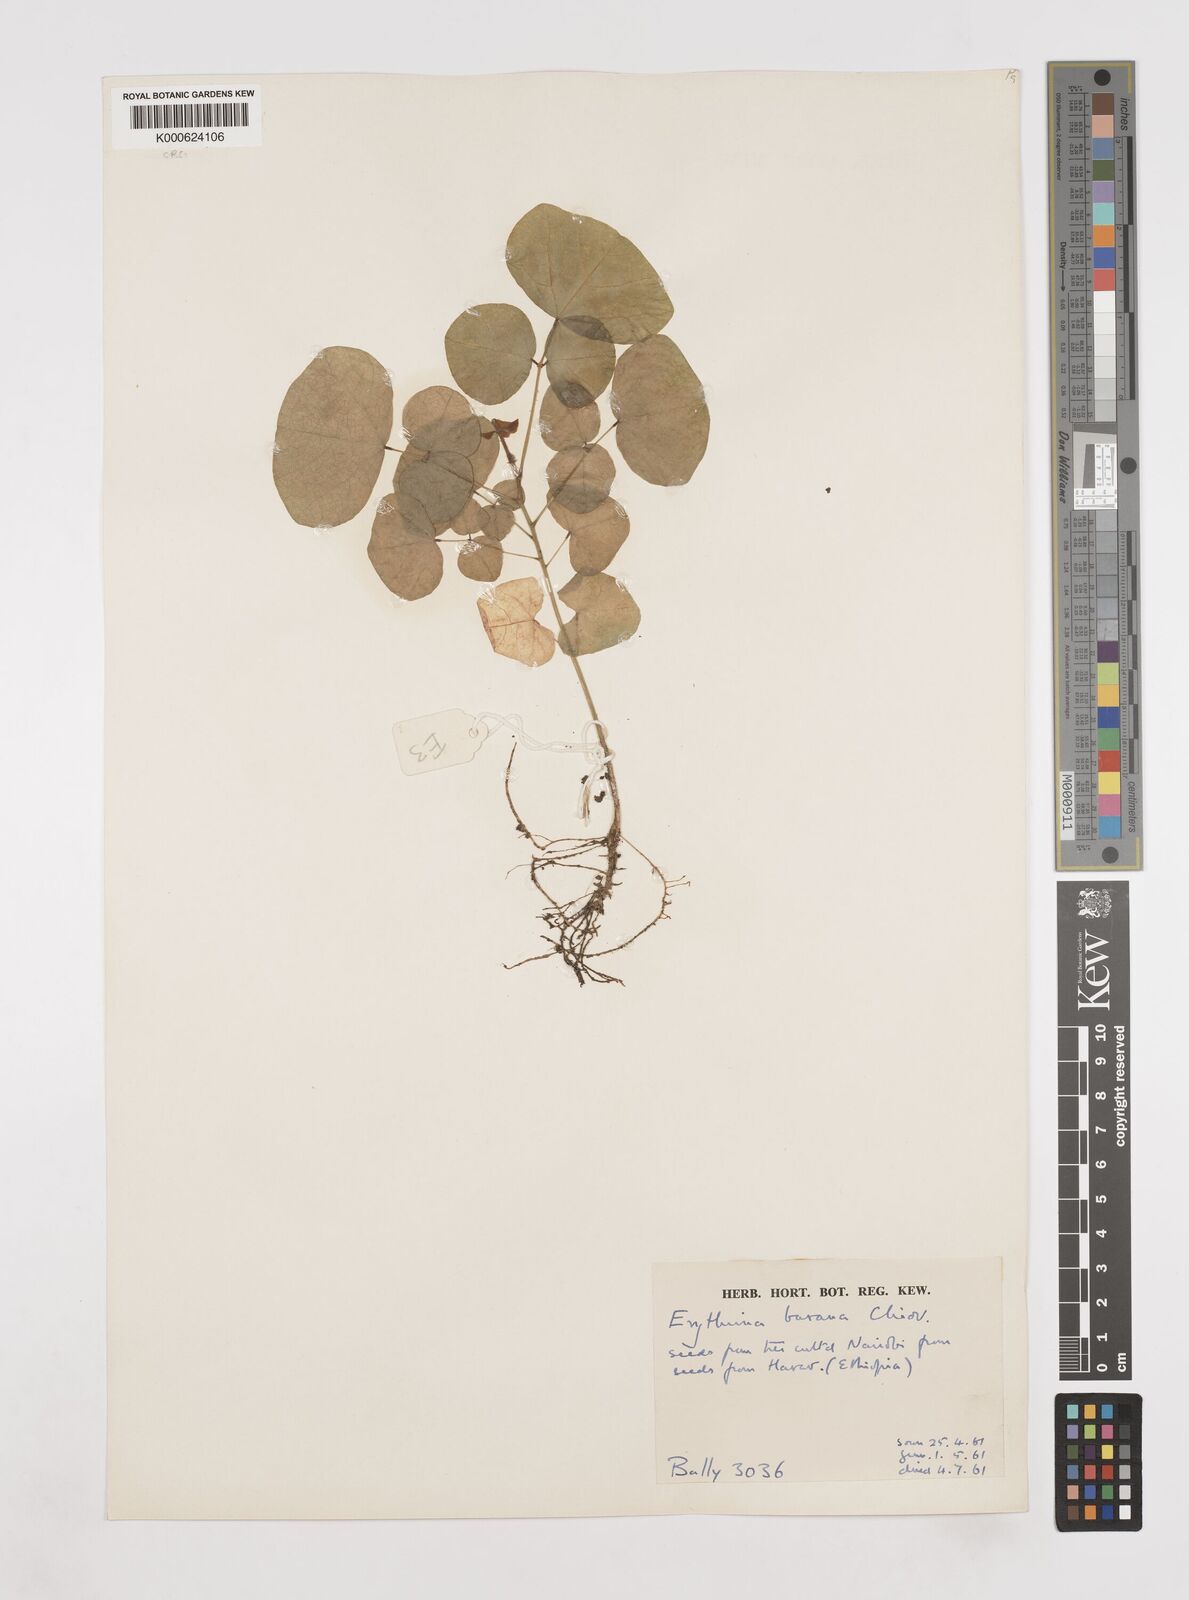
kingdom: Plantae
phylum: Tracheophyta
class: Magnoliopsida
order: Fabales
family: Fabaceae
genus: Erythrina
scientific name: Erythrina burana
